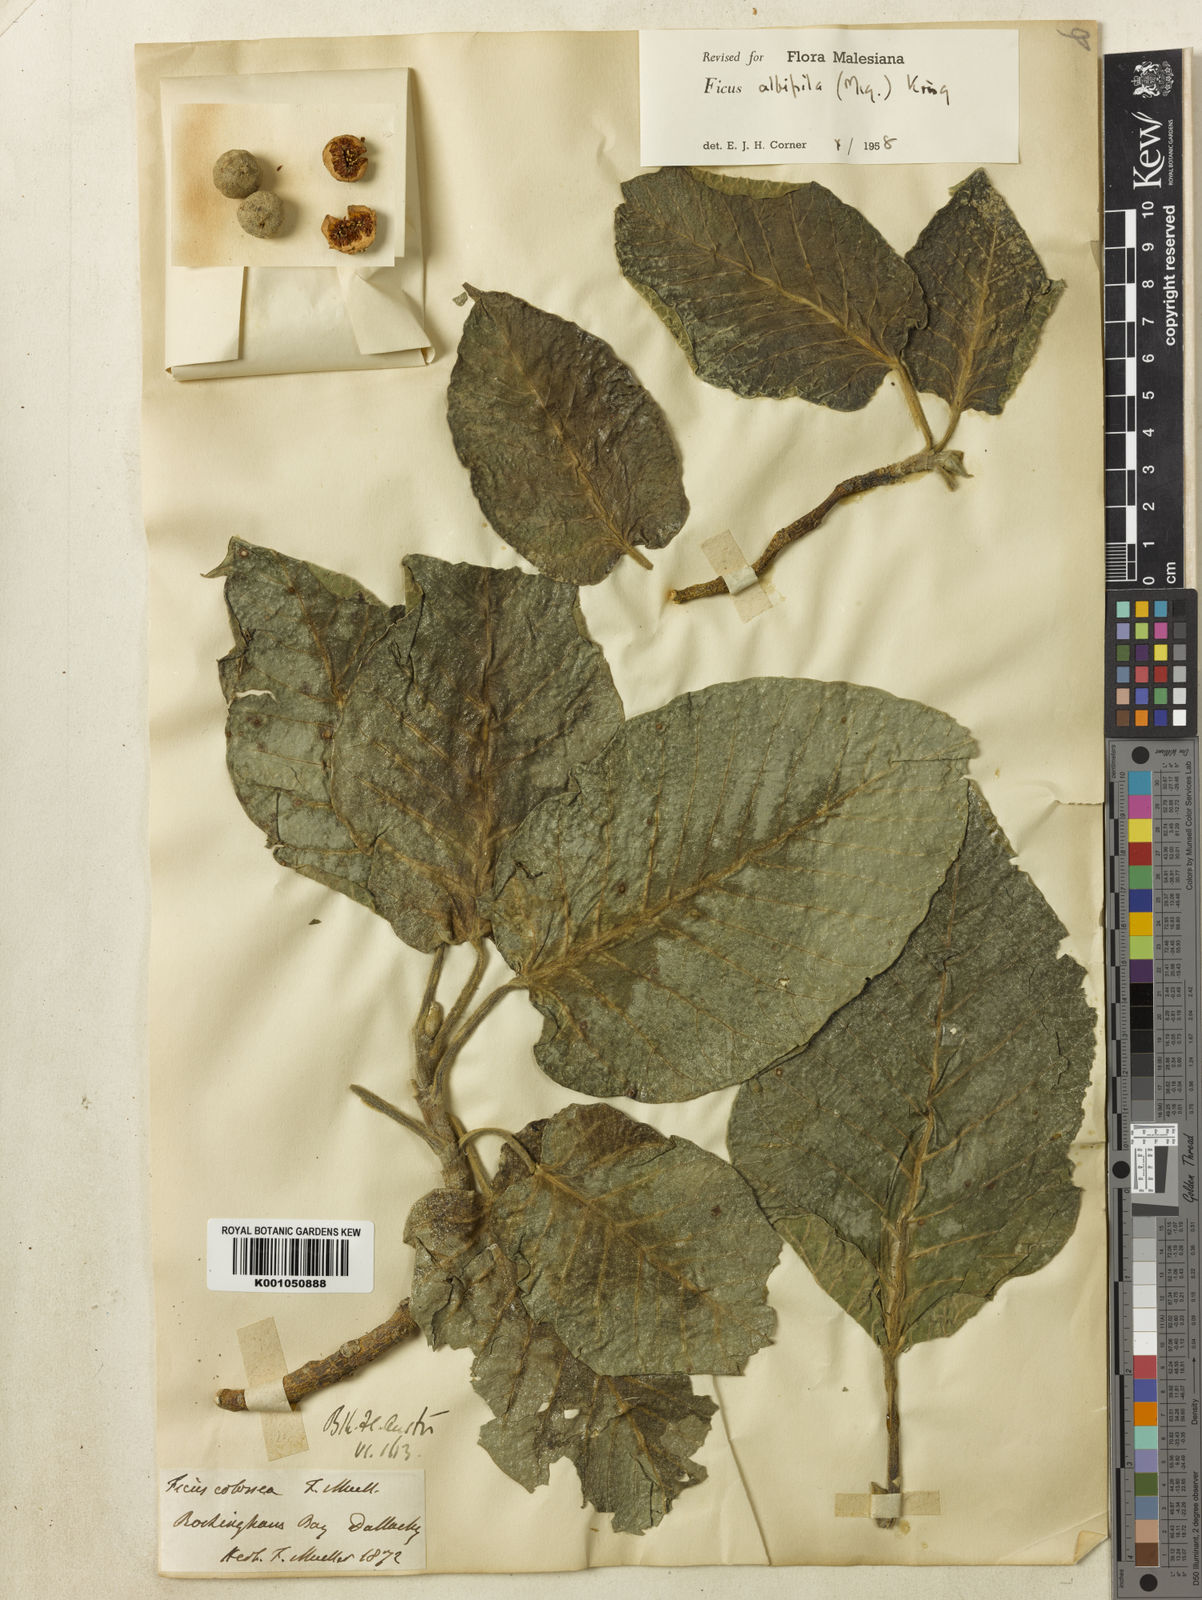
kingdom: Plantae
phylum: Tracheophyta
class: Magnoliopsida
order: Rosales
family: Moraceae
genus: Ficus
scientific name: Ficus albipila
